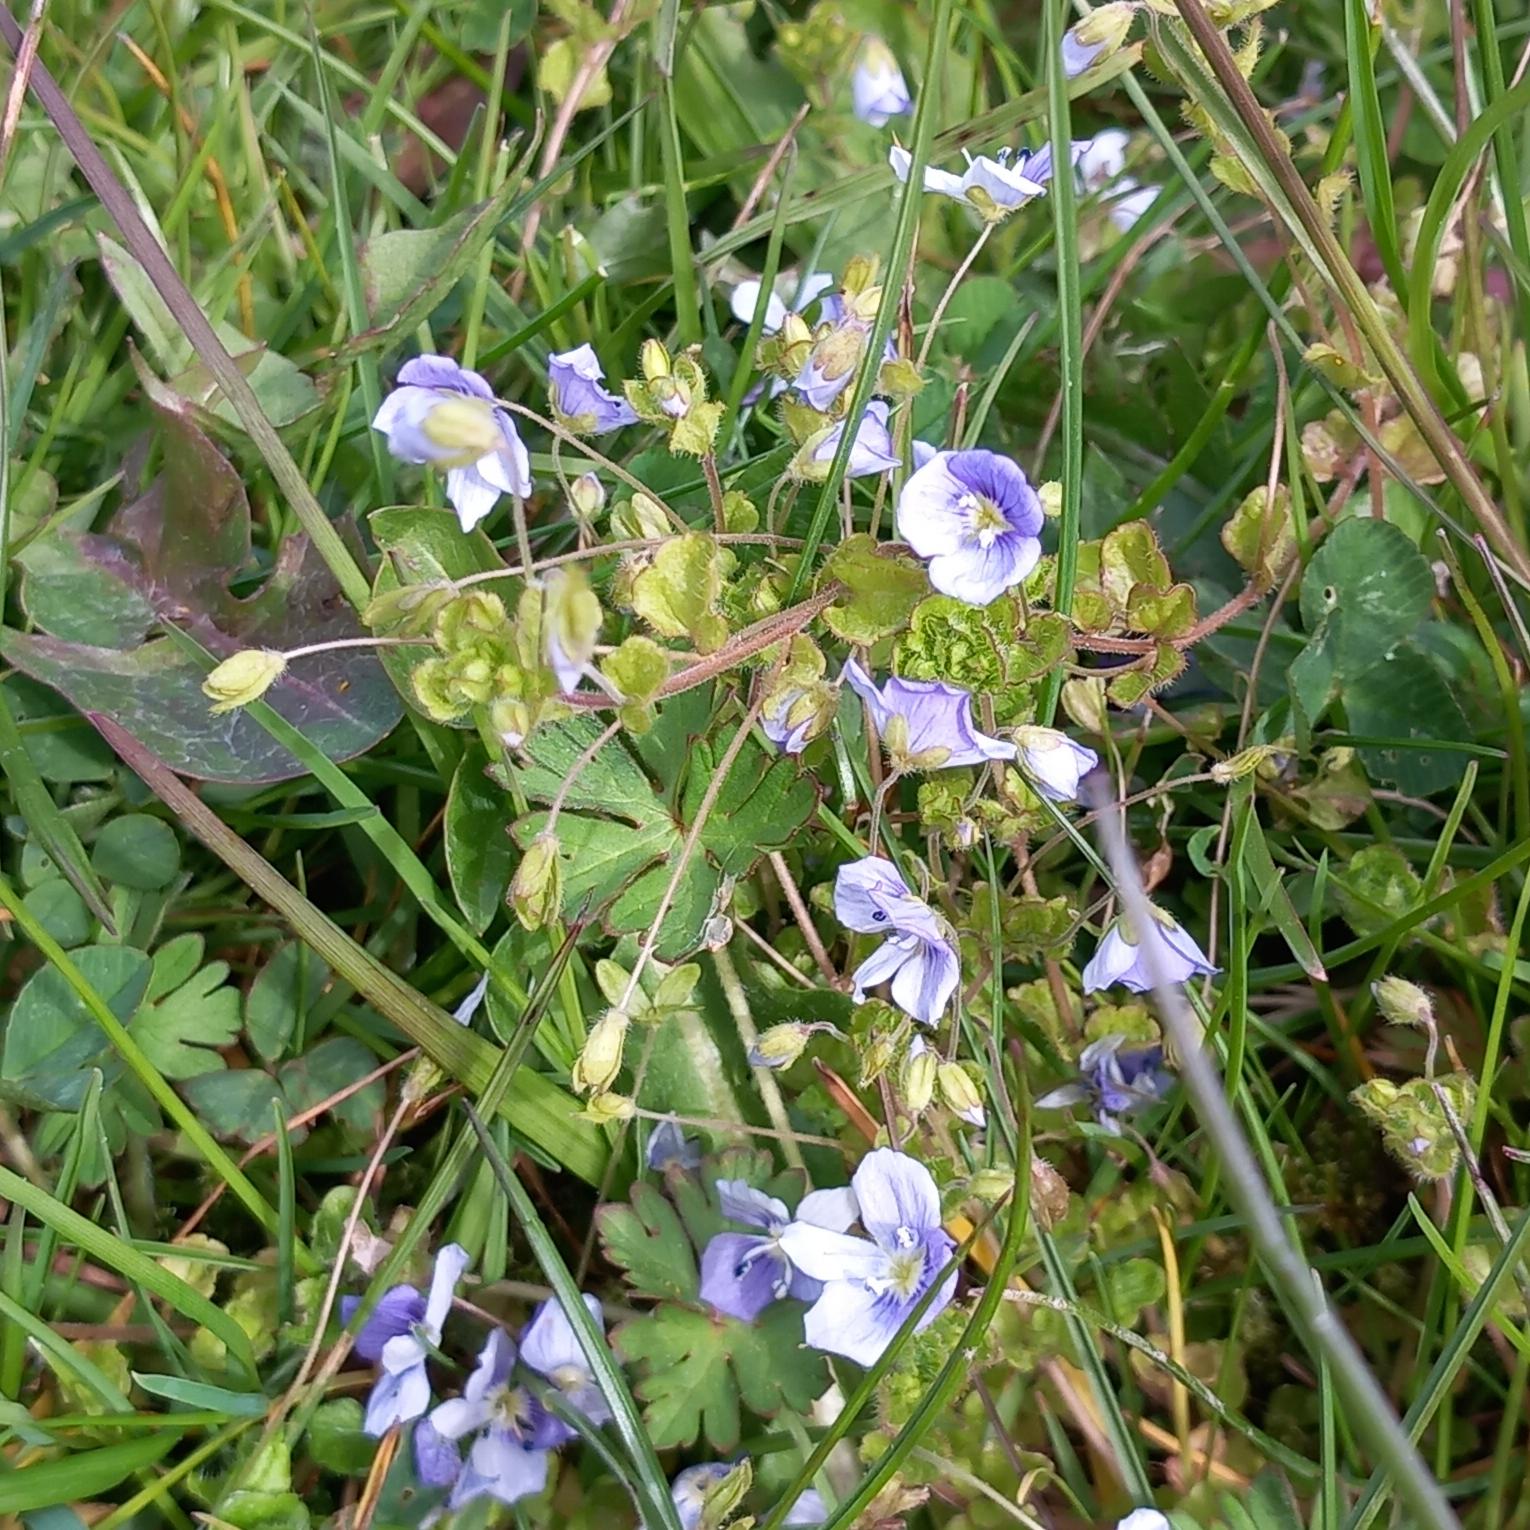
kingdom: Plantae
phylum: Tracheophyta
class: Magnoliopsida
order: Lamiales
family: Plantaginaceae
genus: Veronica
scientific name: Veronica filiformis
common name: Tråd-ærenpris
